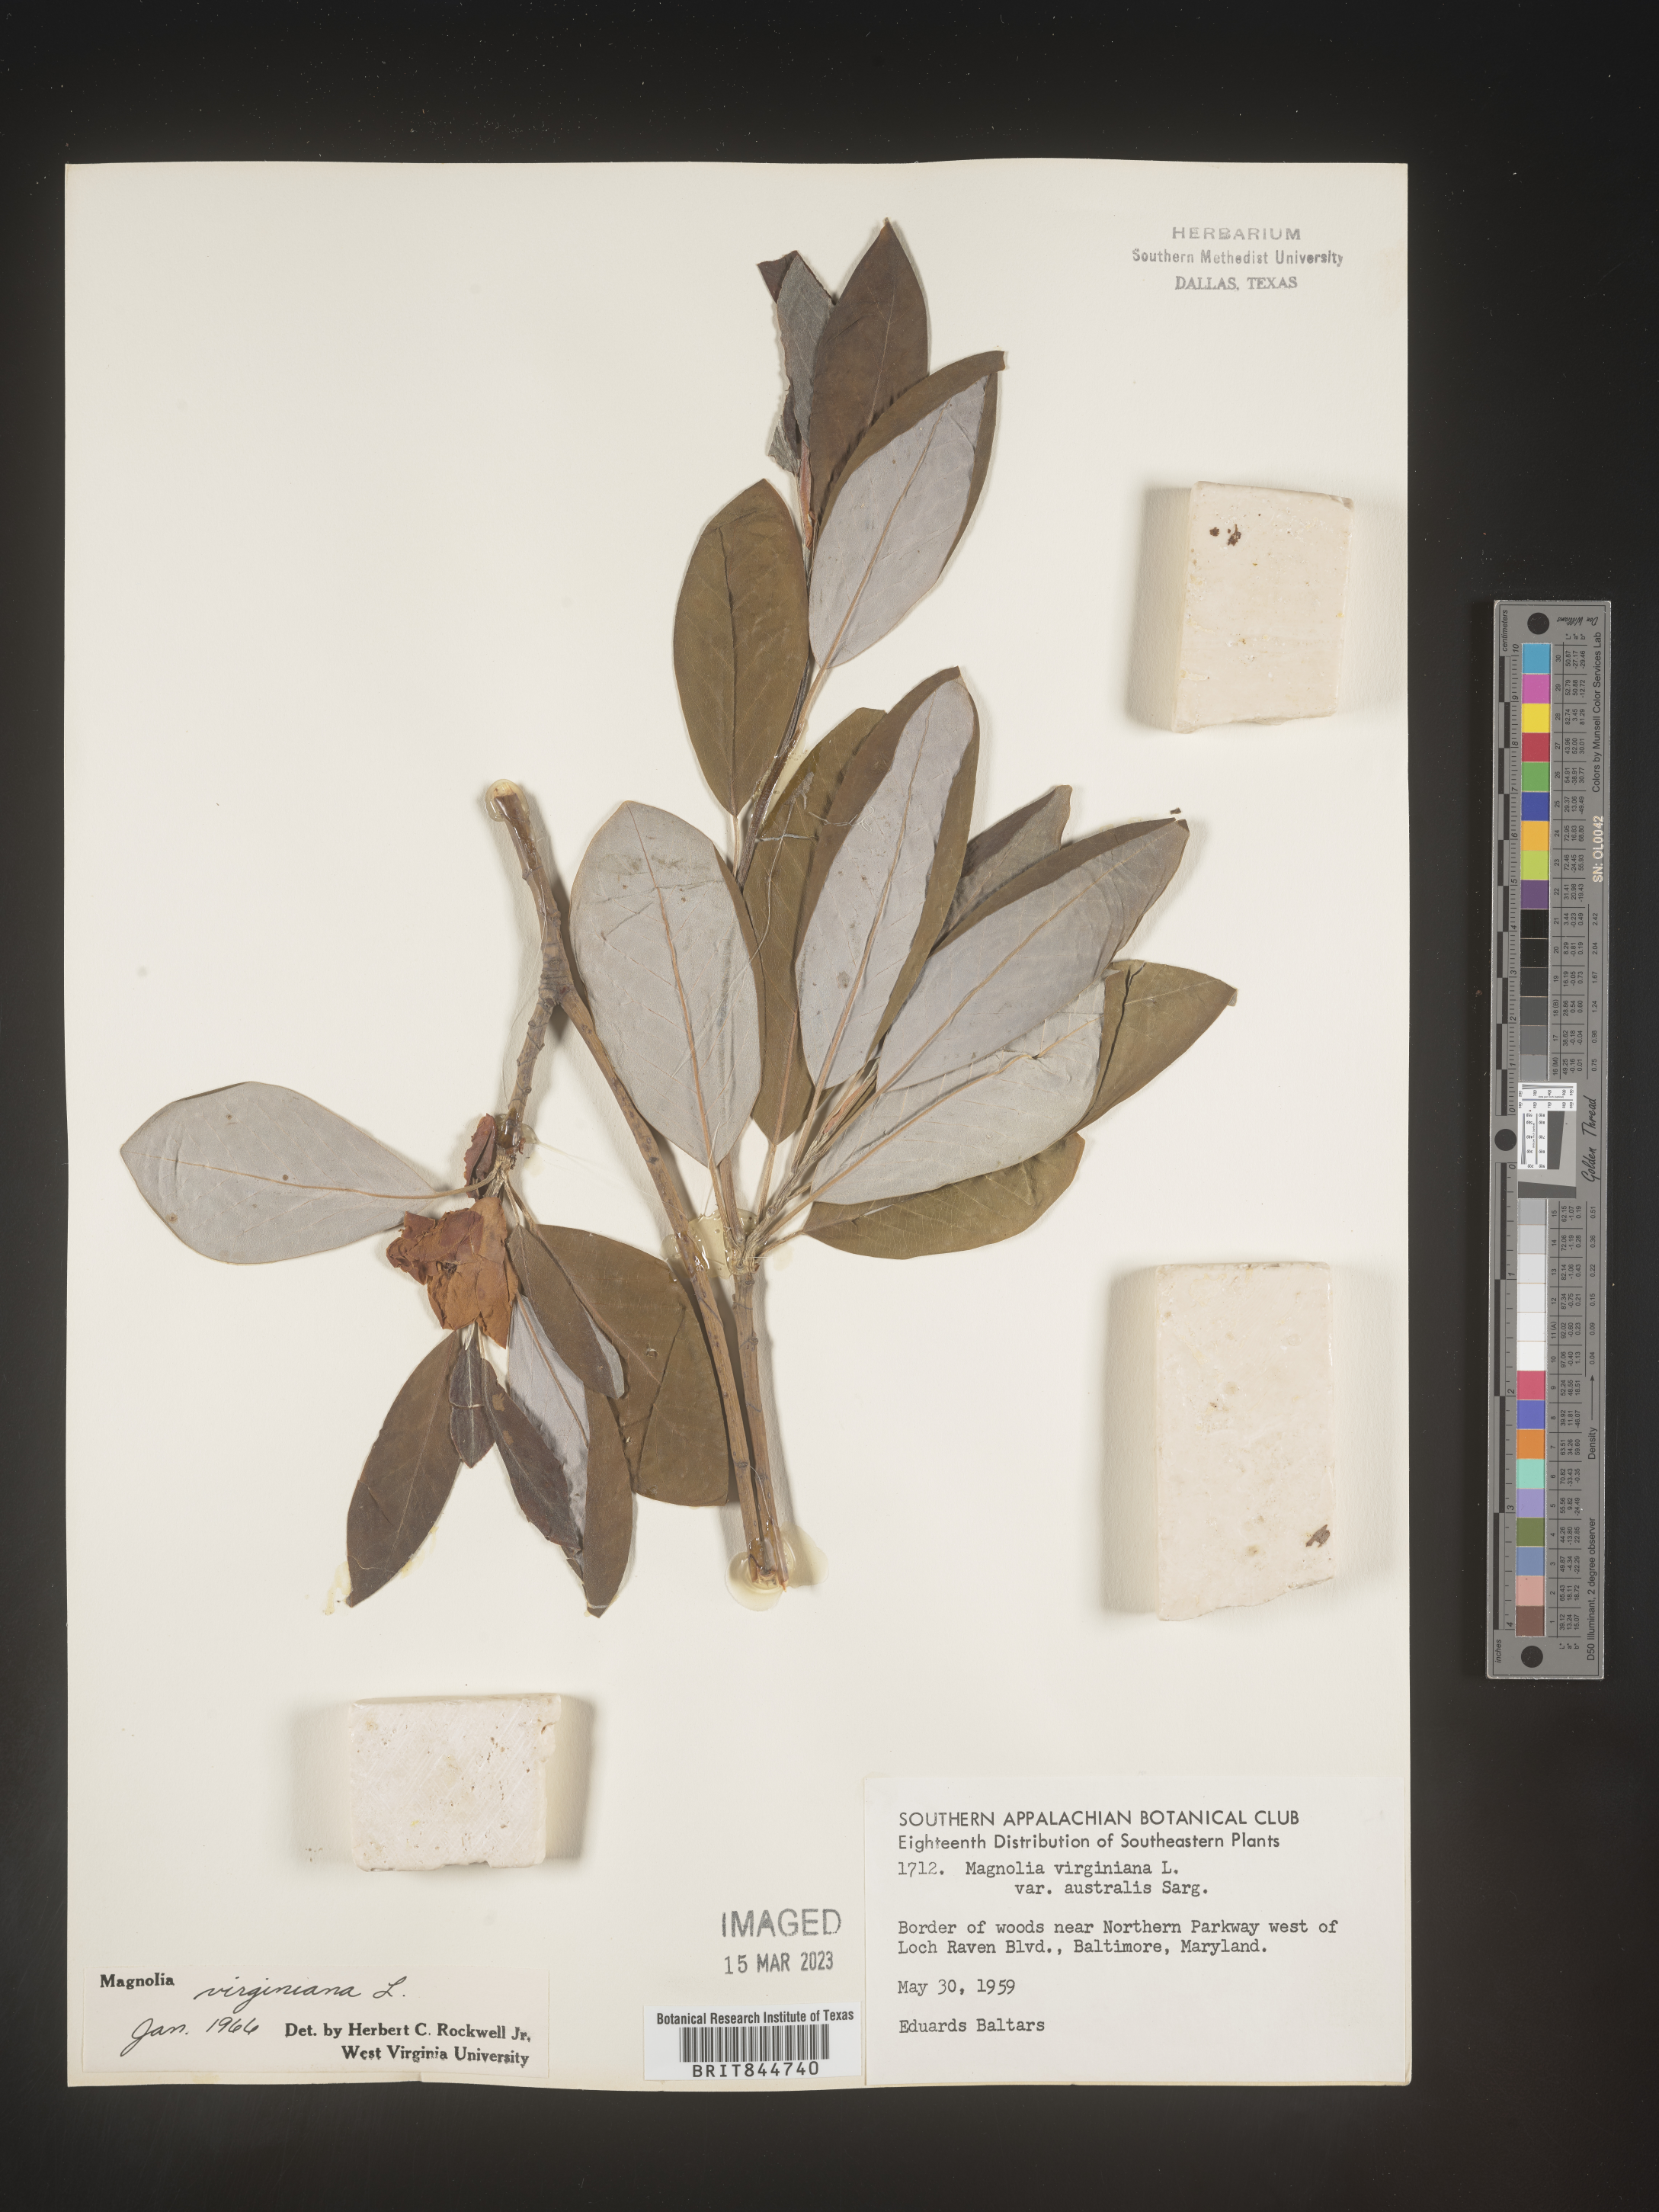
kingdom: Plantae
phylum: Tracheophyta
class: Magnoliopsida
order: Magnoliales
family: Magnoliaceae
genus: Magnolia
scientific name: Magnolia virginiana
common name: Swamp bay
